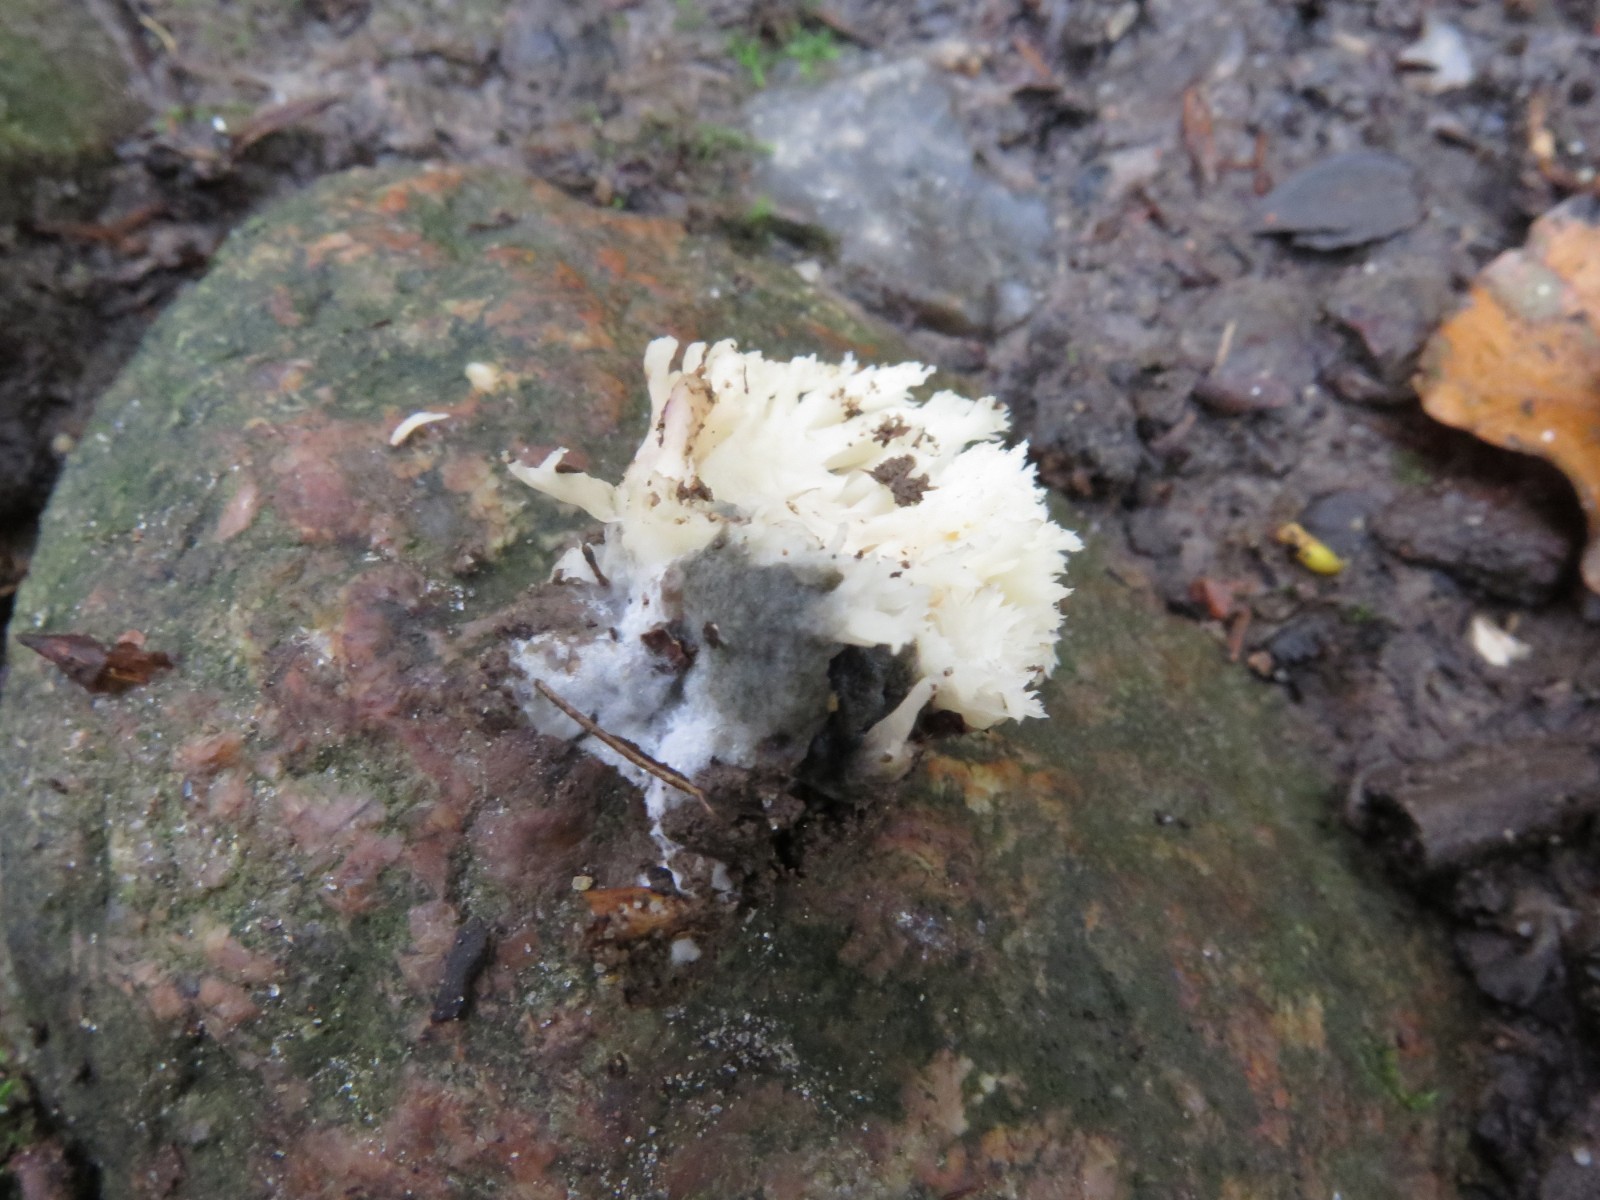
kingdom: Fungi
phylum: Ascomycota
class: Sordariomycetes
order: Sordariales
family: Helminthosphaeriaceae
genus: Helminthosphaeria
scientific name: Helminthosphaeria clavariarum
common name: trold-svampesnyltekerne
